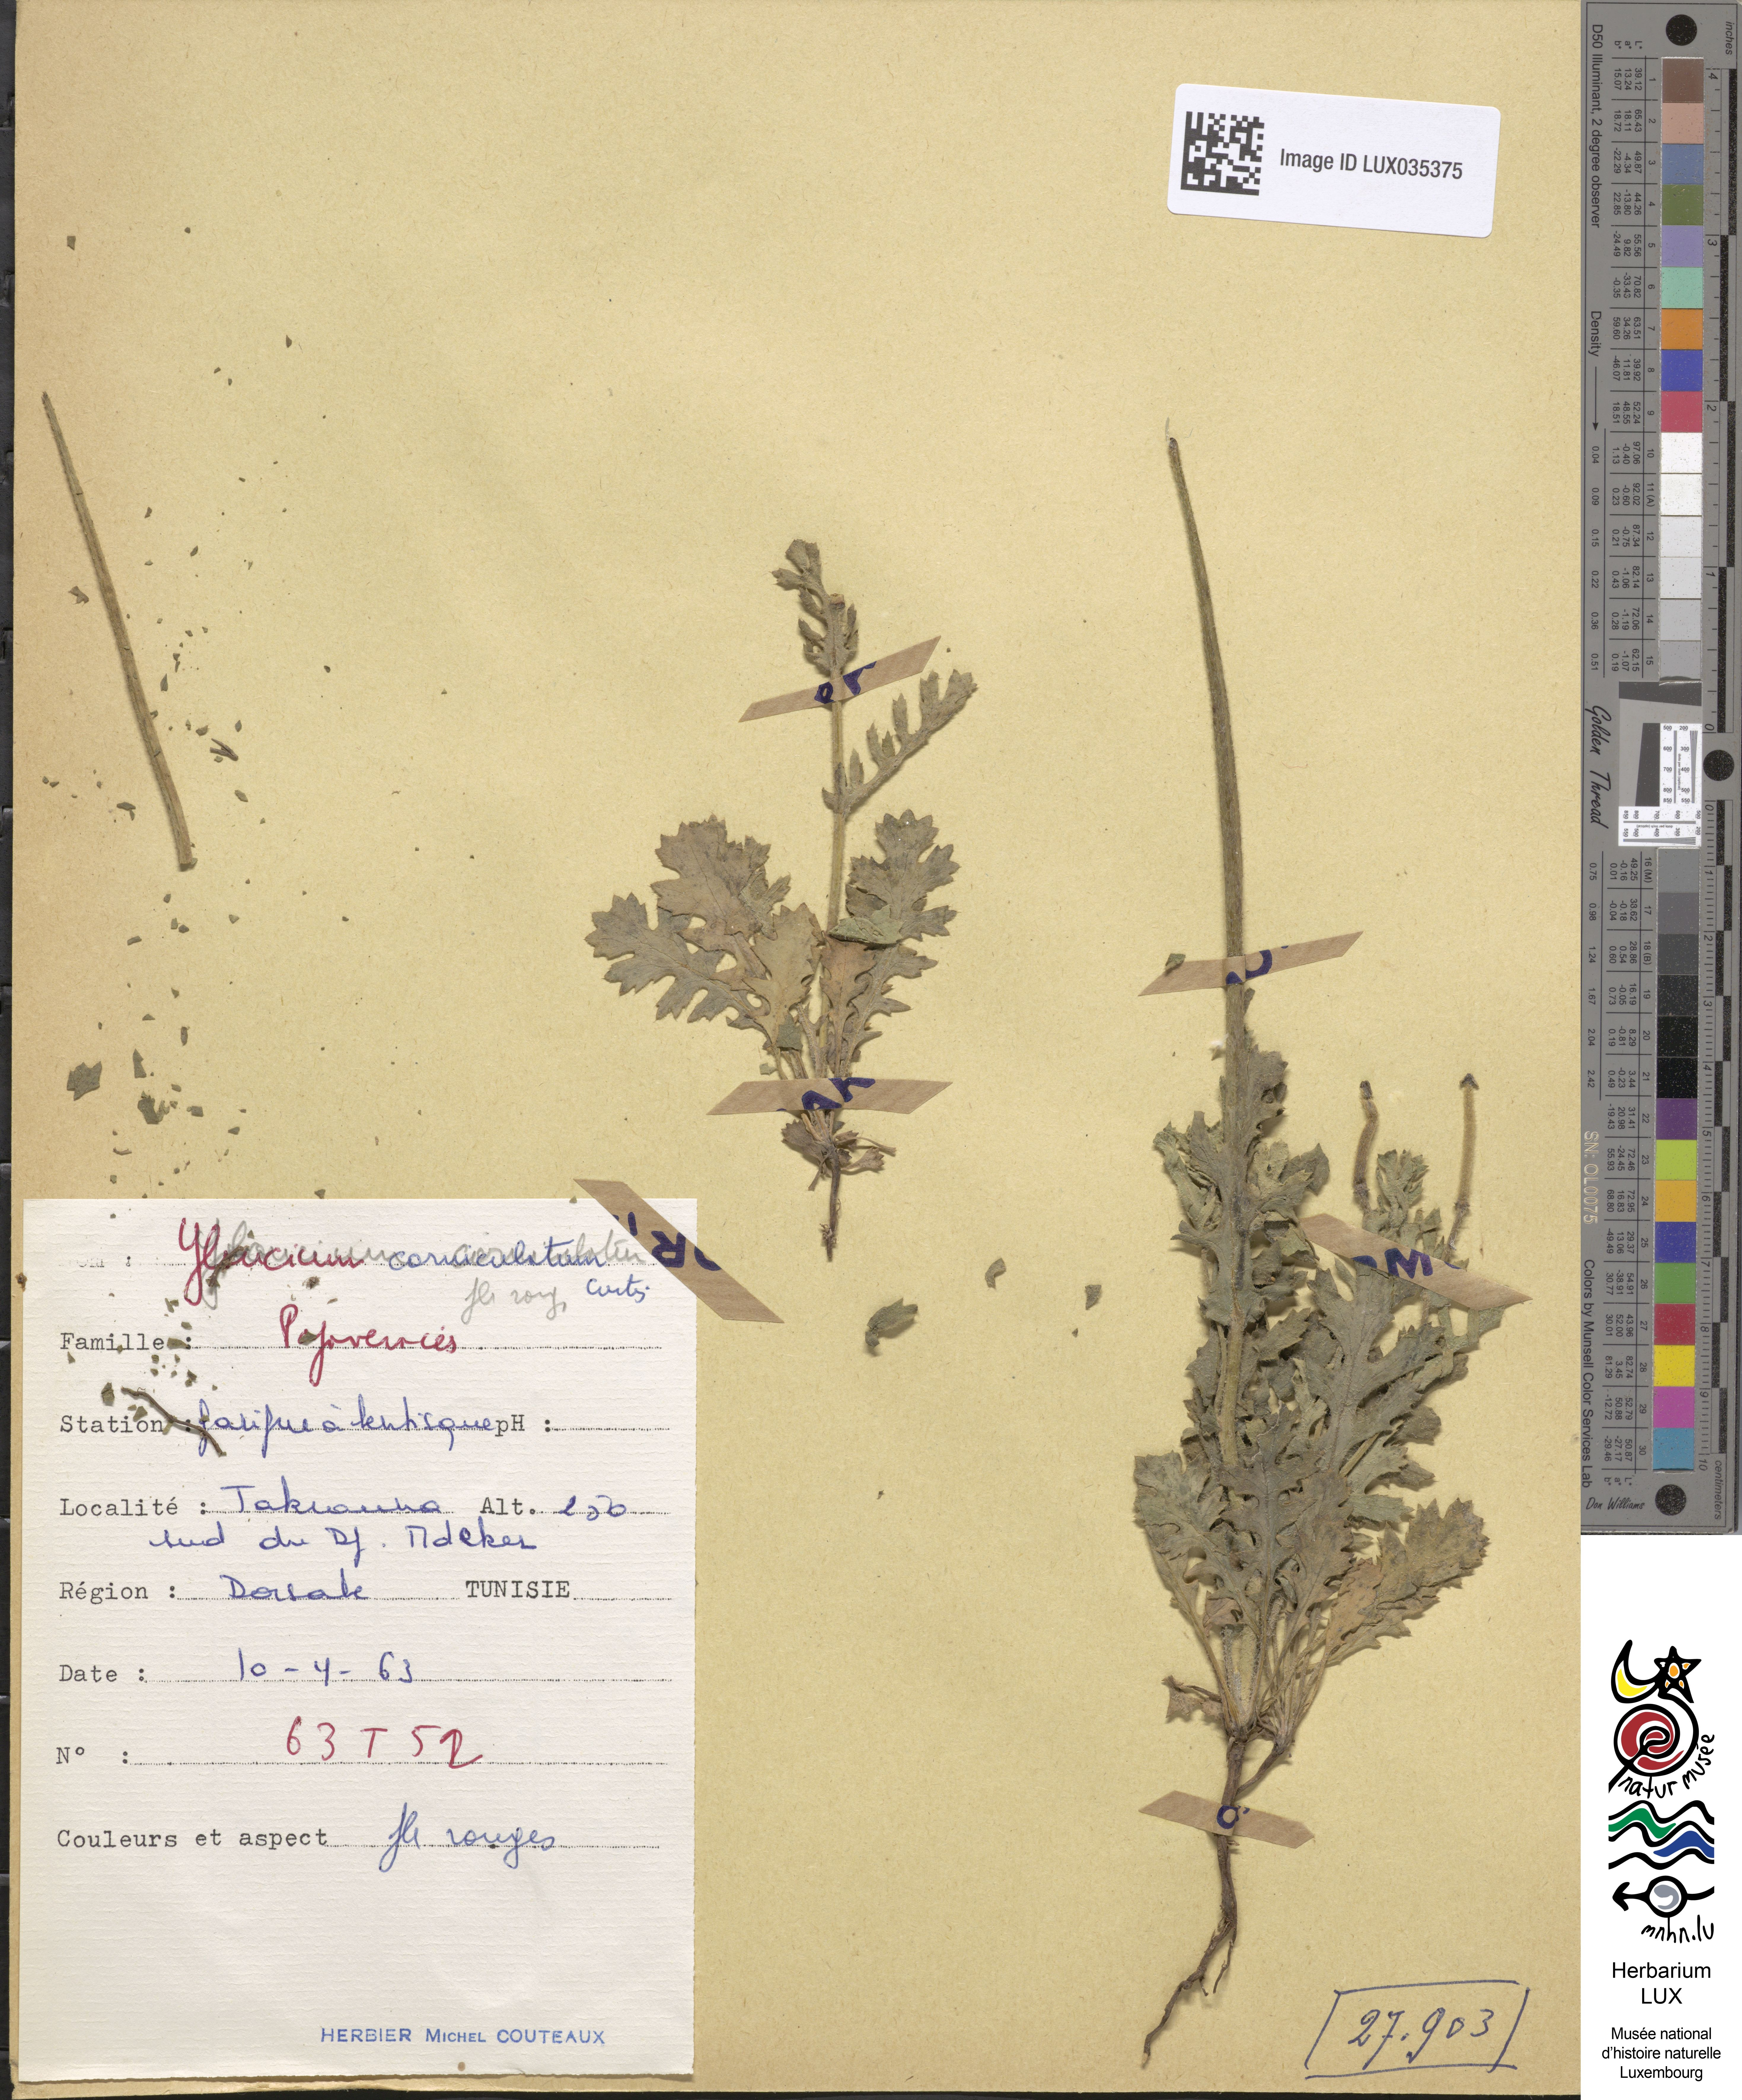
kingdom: Plantae
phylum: Tracheophyta
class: Magnoliopsida
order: Ranunculales
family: Papaveraceae
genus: Glaucium
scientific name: Glaucium corniculatum
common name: Red horned-poppy
